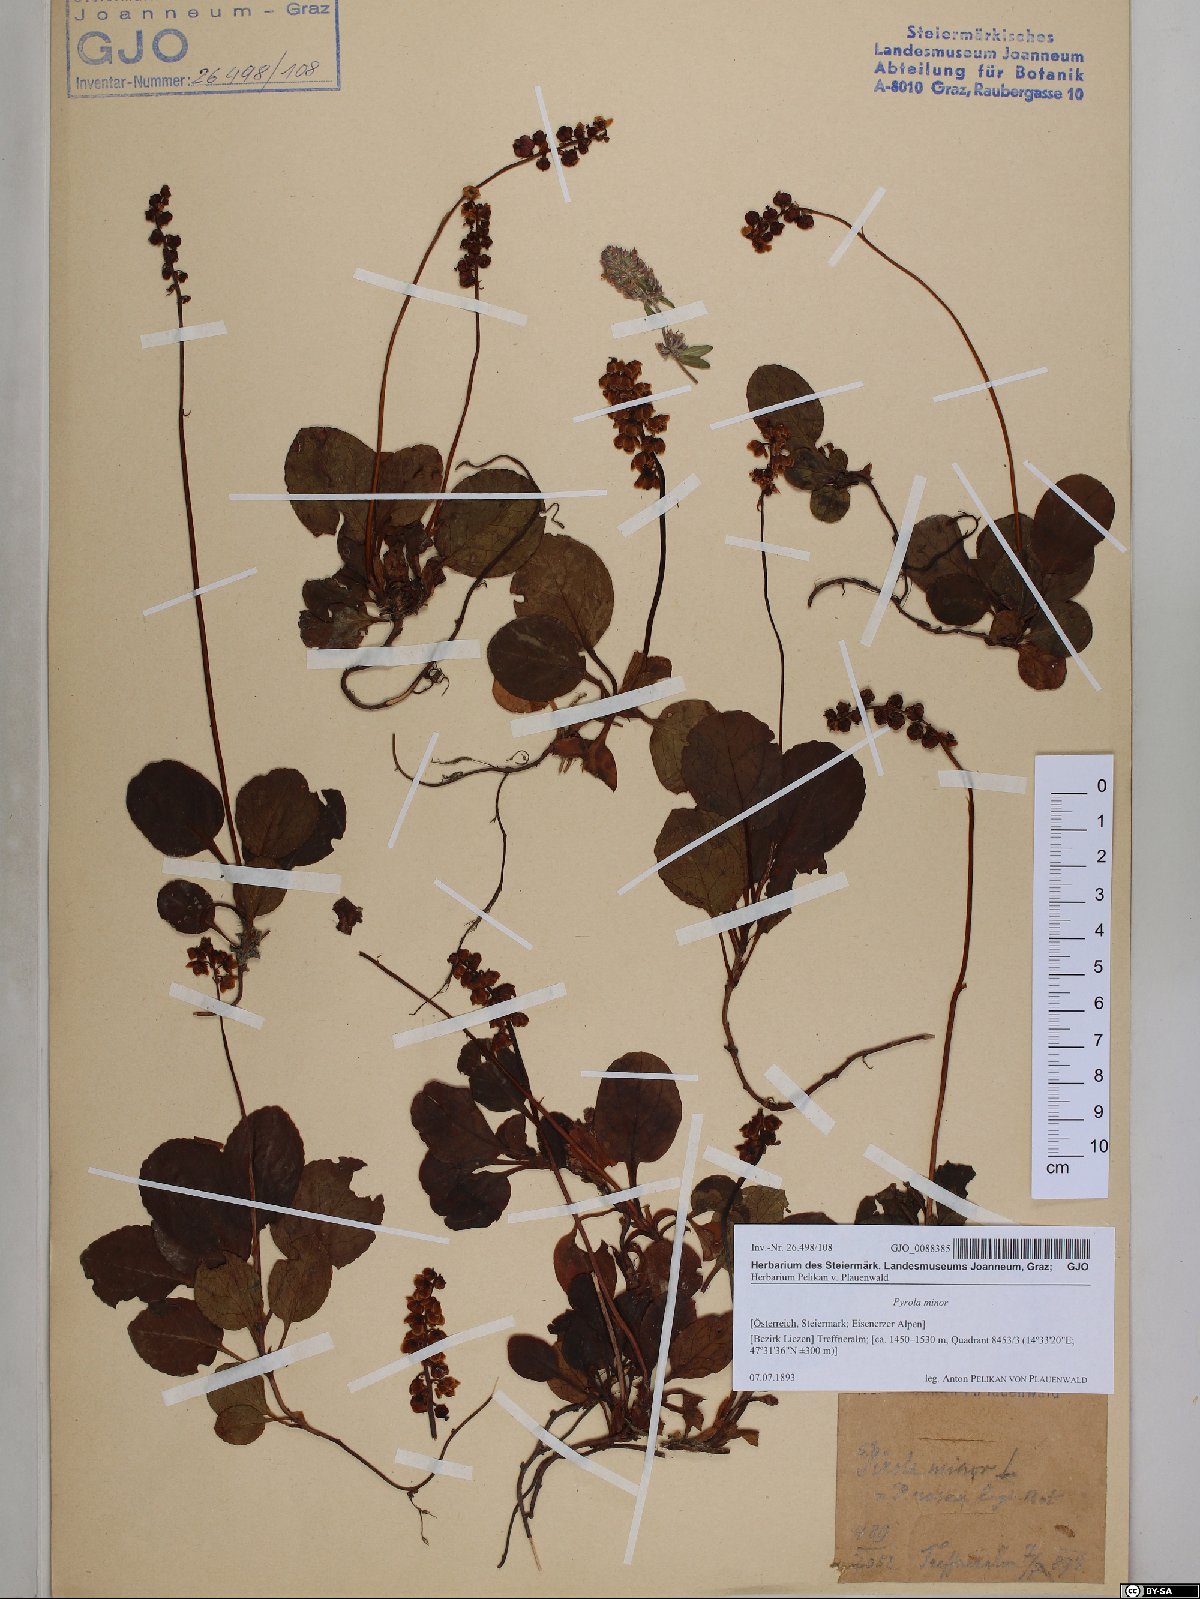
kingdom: Plantae
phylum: Tracheophyta
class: Magnoliopsida
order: Ericales
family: Ericaceae
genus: Pyrola
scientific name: Pyrola minor
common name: Common wintergreen
